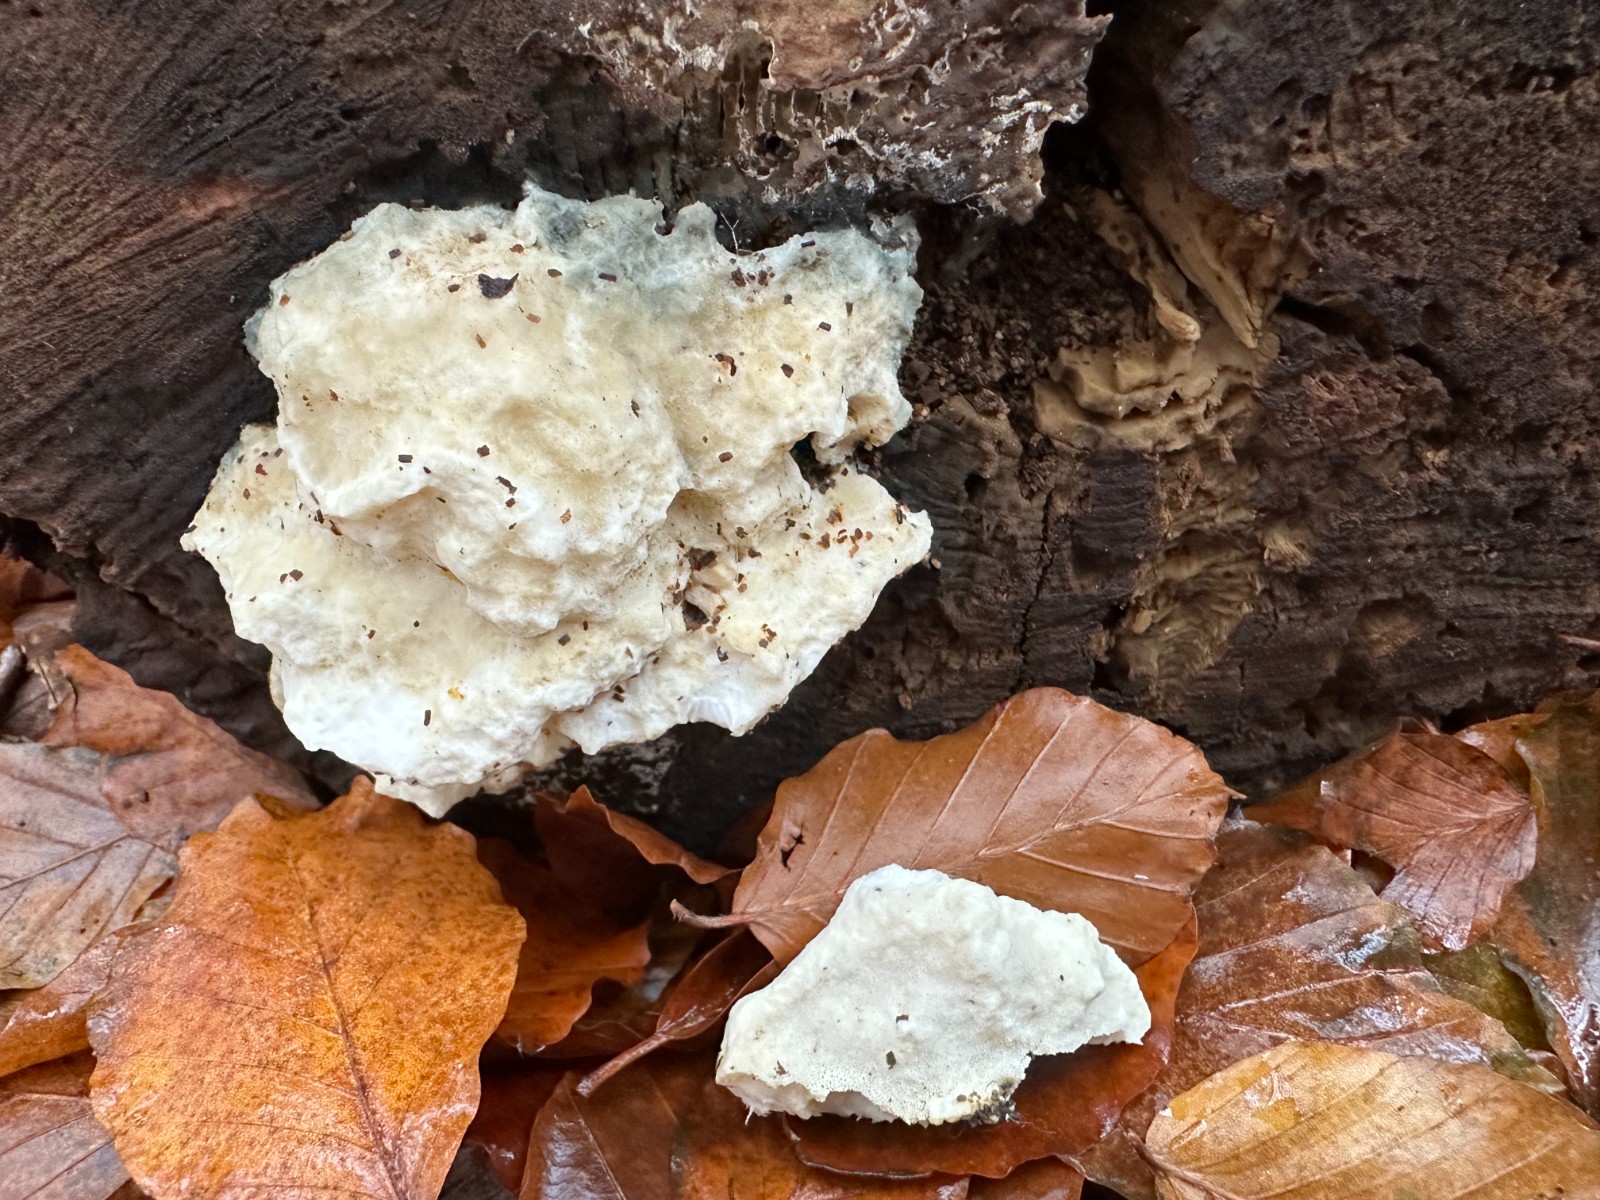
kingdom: Fungi
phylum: Basidiomycota
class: Agaricomycetes
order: Polyporales
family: Incrustoporiaceae
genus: Tyromyces
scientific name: Tyromyces lacteus
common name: mælkehvid kødporesvamp
